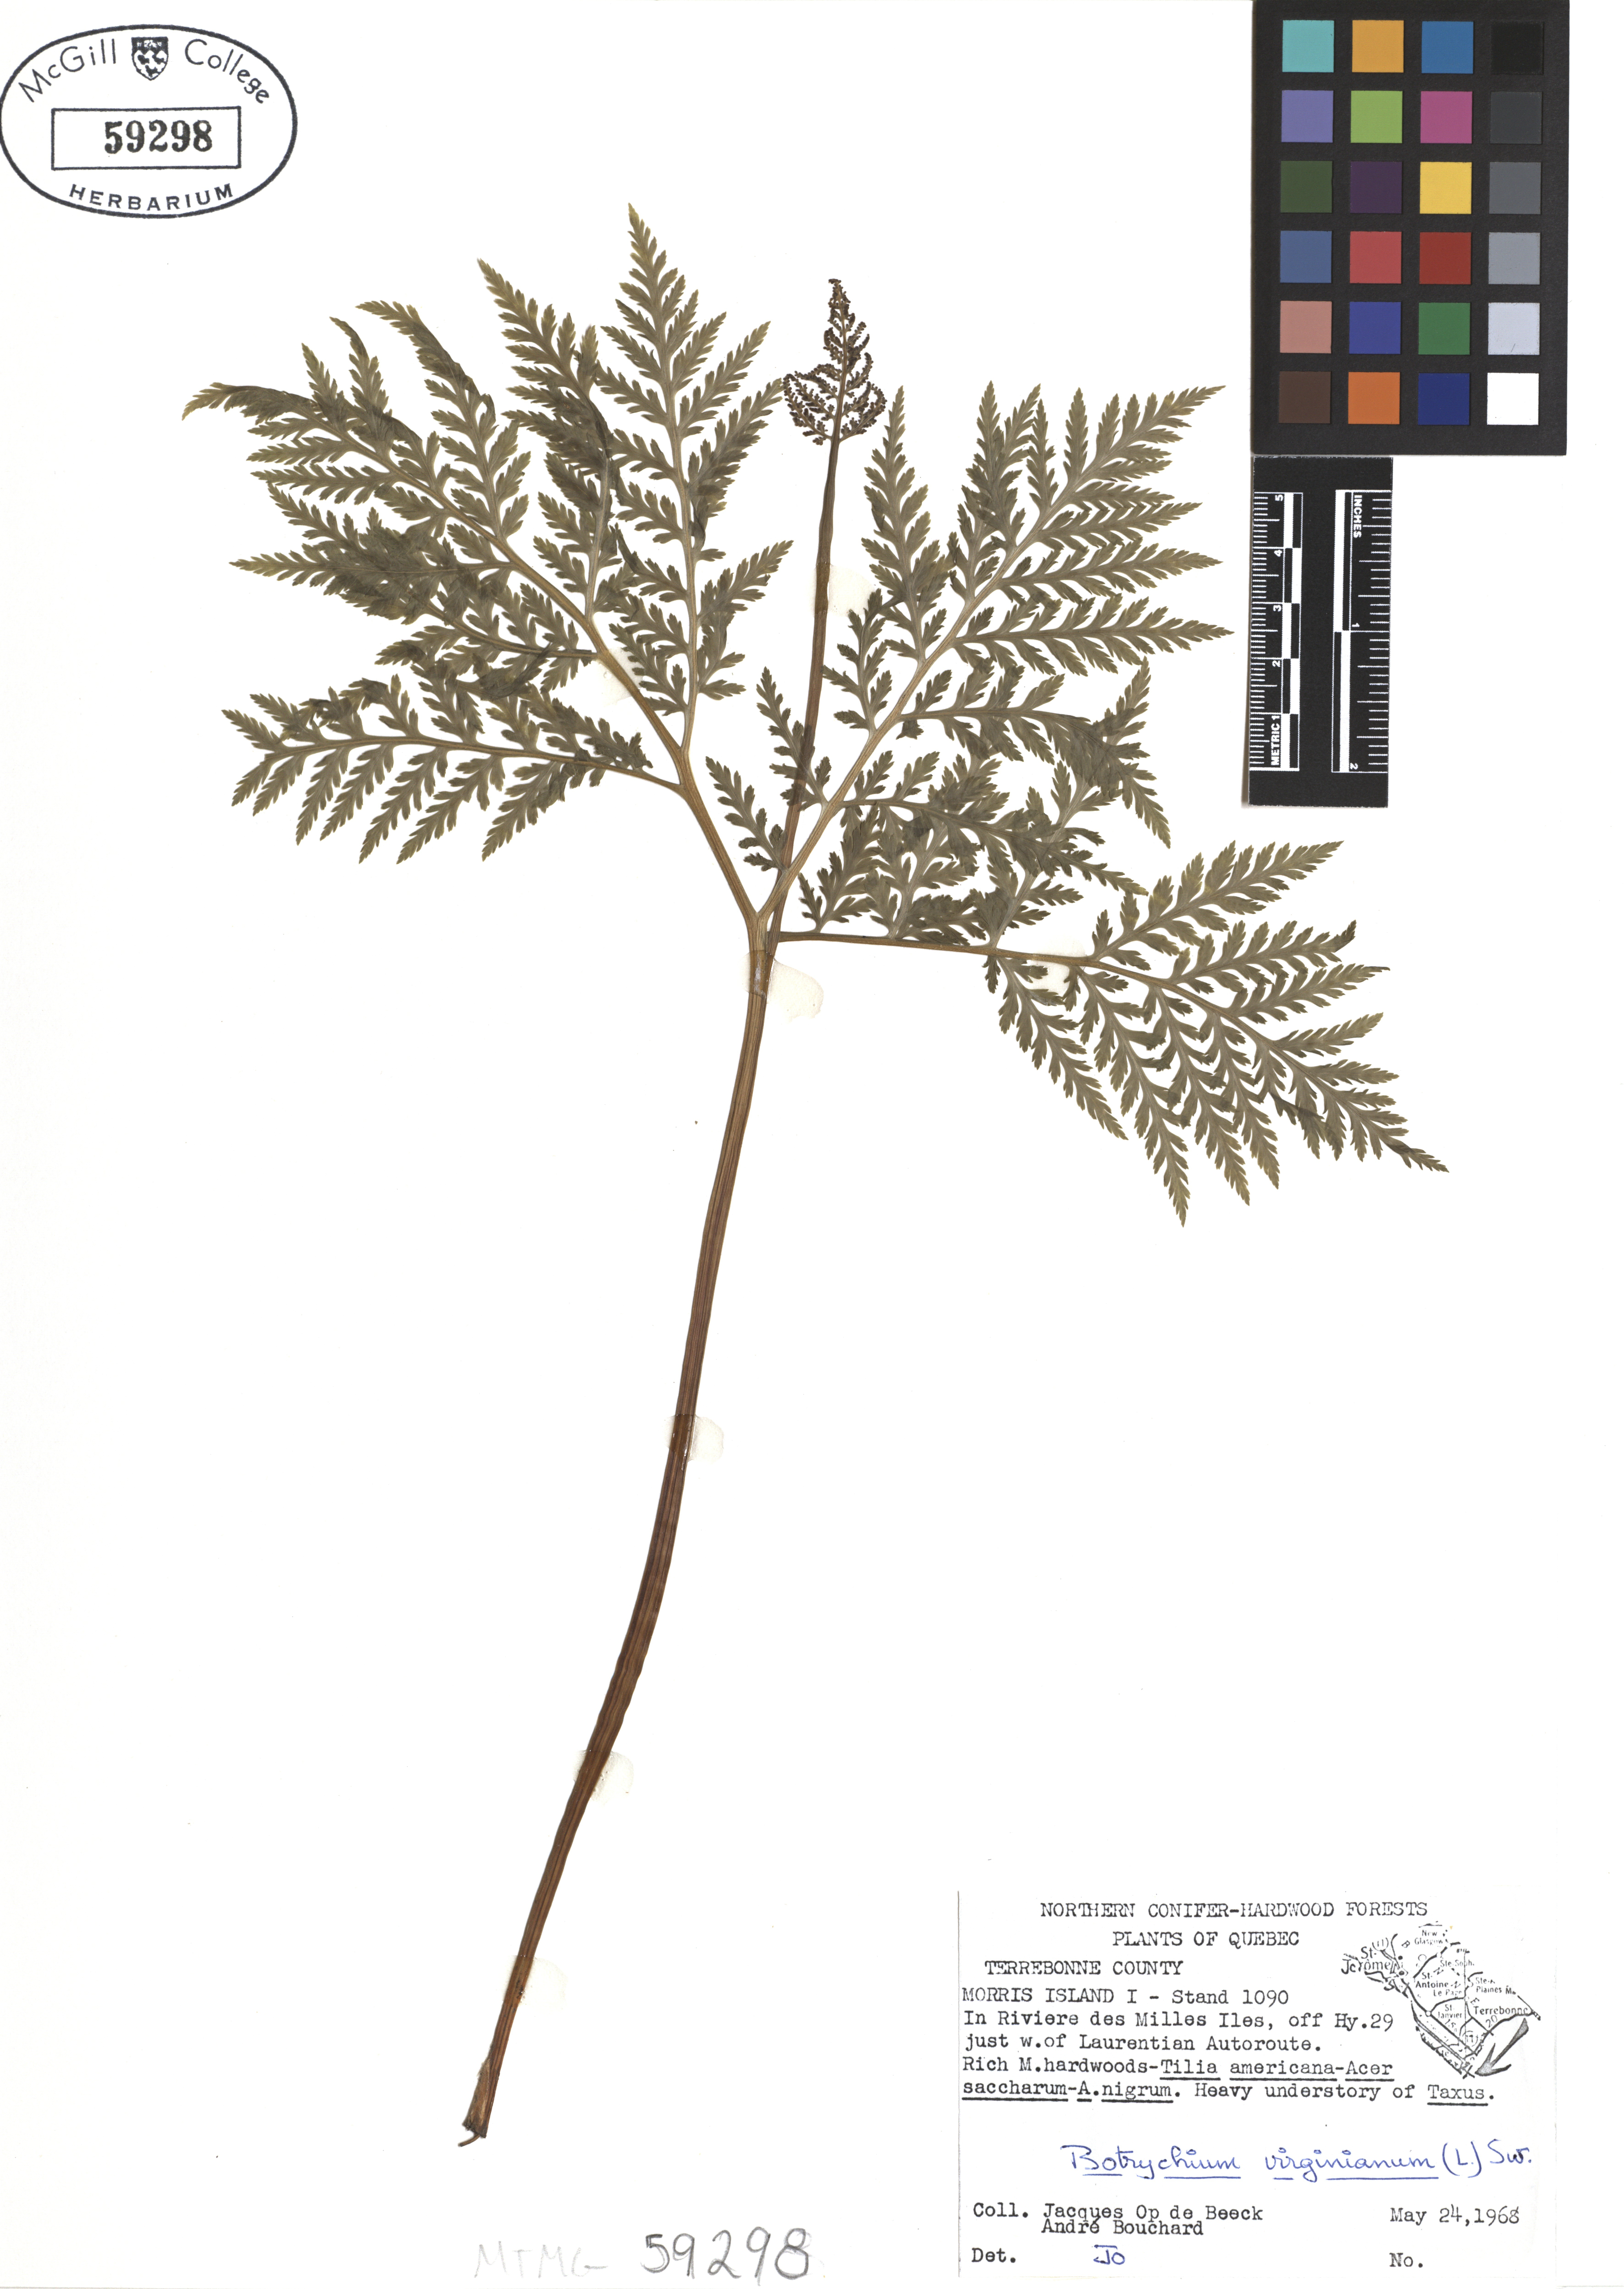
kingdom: Plantae
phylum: Tracheophyta
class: Polypodiopsida
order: Ophioglossales
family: Ophioglossaceae
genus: Botrypus
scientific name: Botrypus virginianus
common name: Common grapefern
